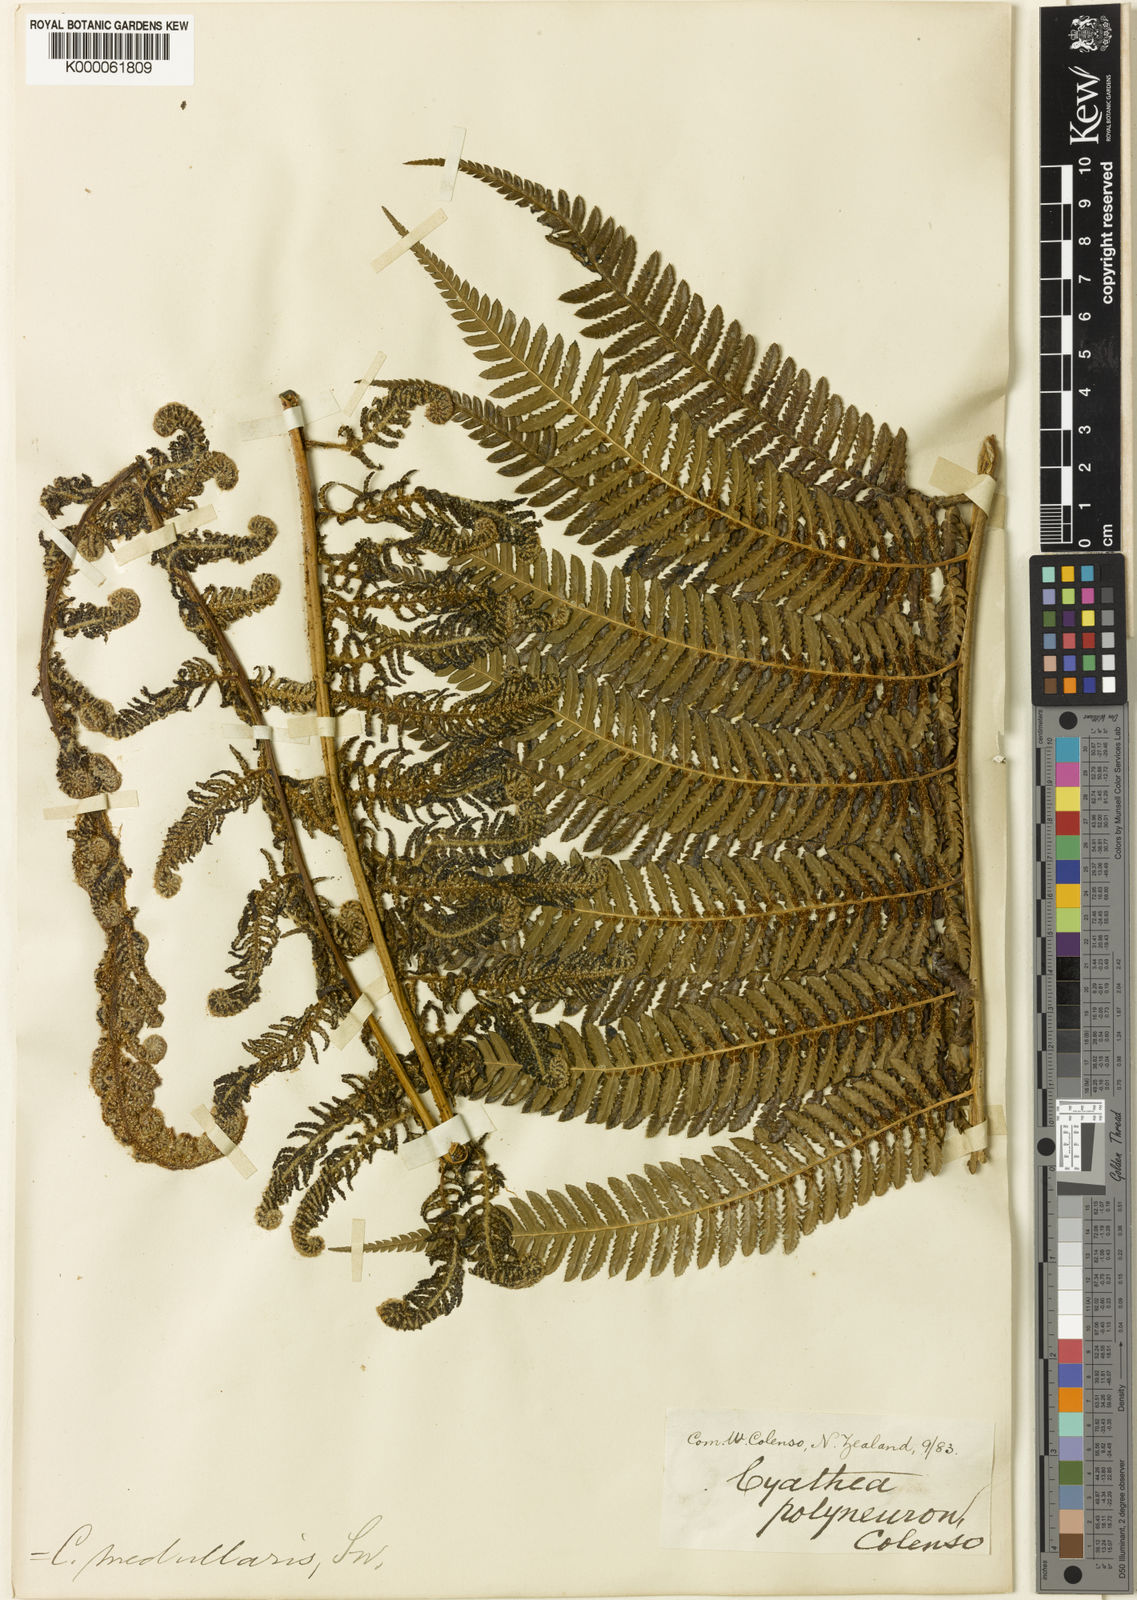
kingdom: Plantae
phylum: Tracheophyta
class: Polypodiopsida
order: Cyatheales
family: Cyatheaceae
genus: Sphaeropteris
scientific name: Sphaeropteris medullaris
